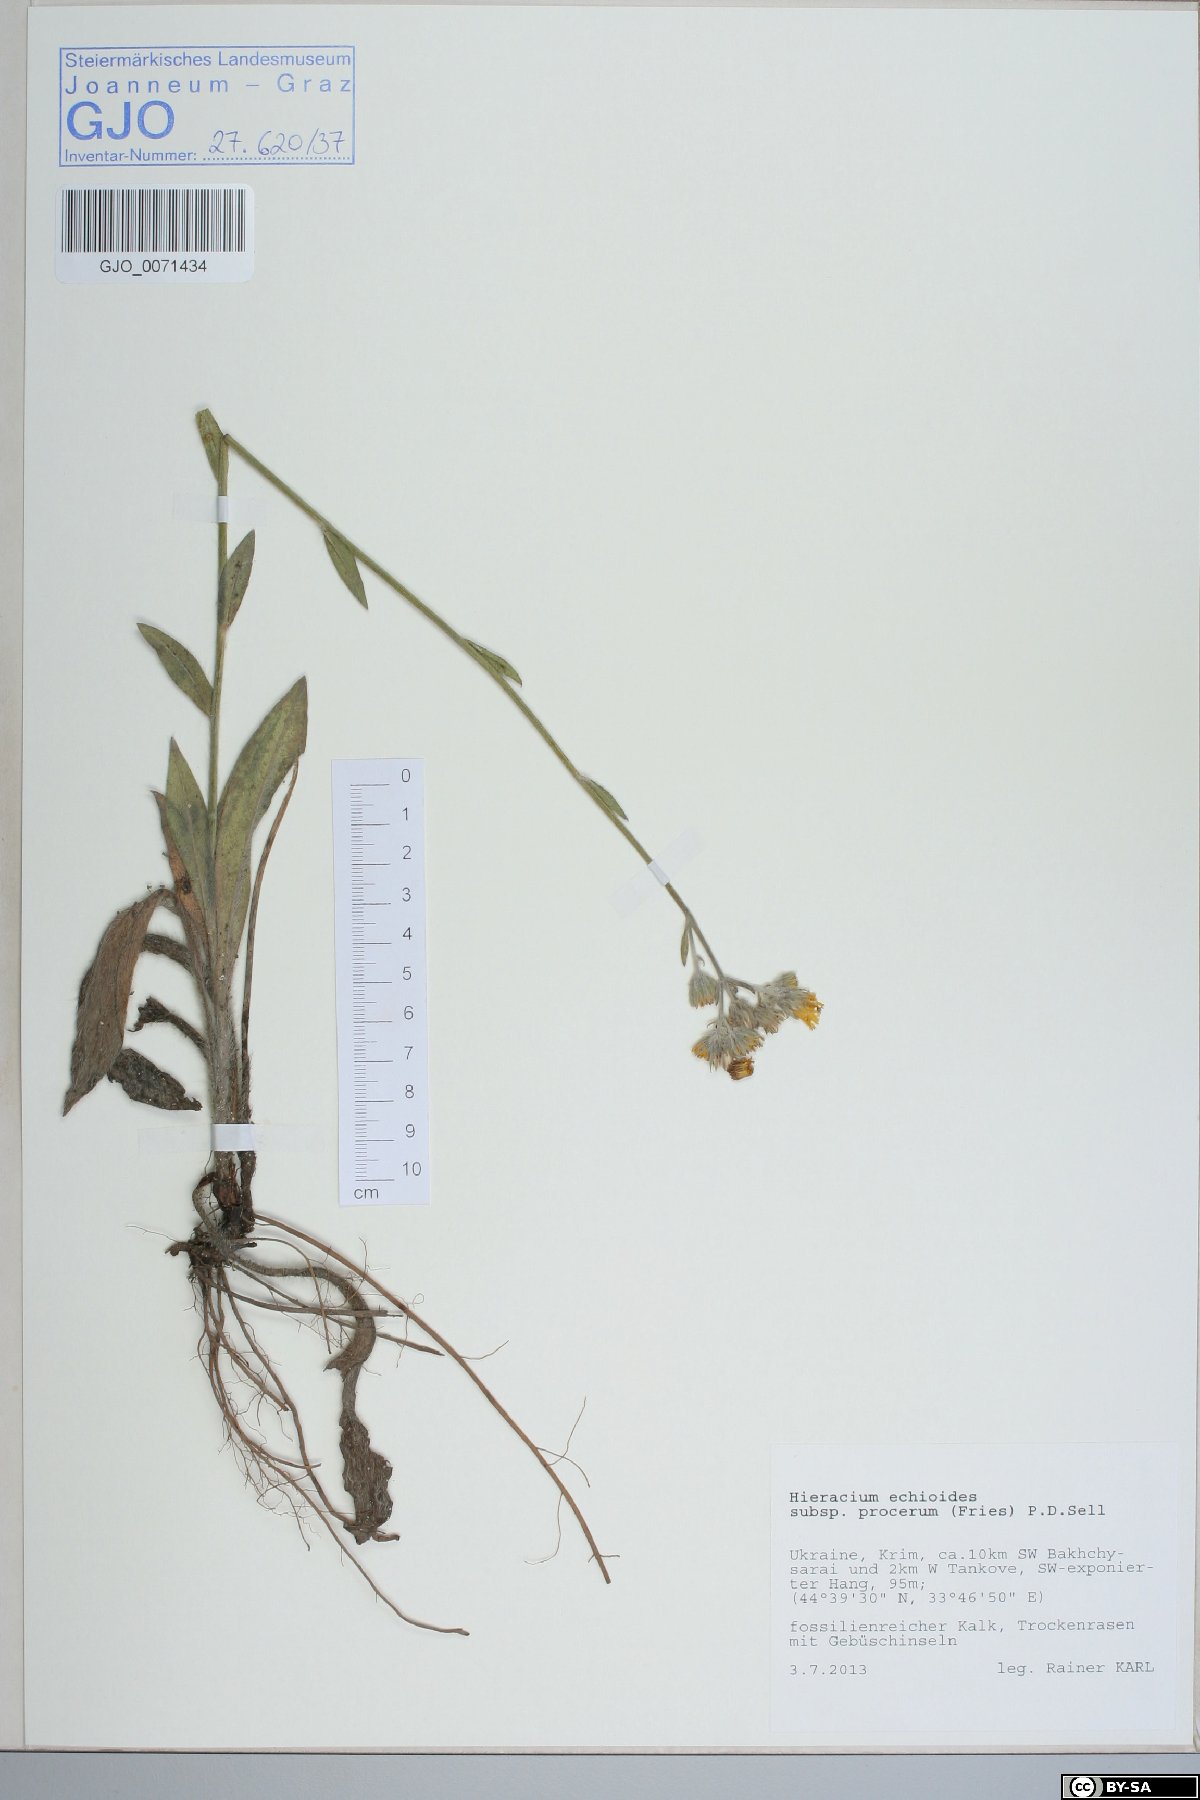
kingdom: Plantae
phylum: Tracheophyta
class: Magnoliopsida
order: Asterales
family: Asteraceae
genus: Pilosella
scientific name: Pilosella procera
